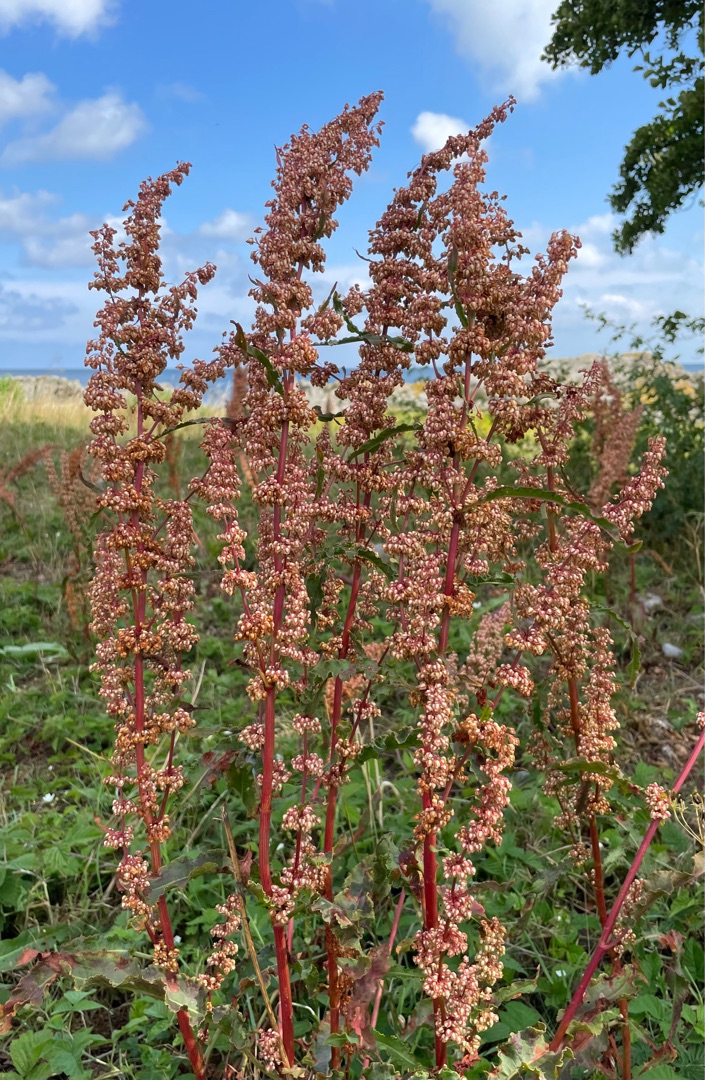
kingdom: Plantae
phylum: Tracheophyta
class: Magnoliopsida
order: Caryophyllales
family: Polygonaceae
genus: Rumex
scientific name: Rumex crispus
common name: Kruset skræppe
